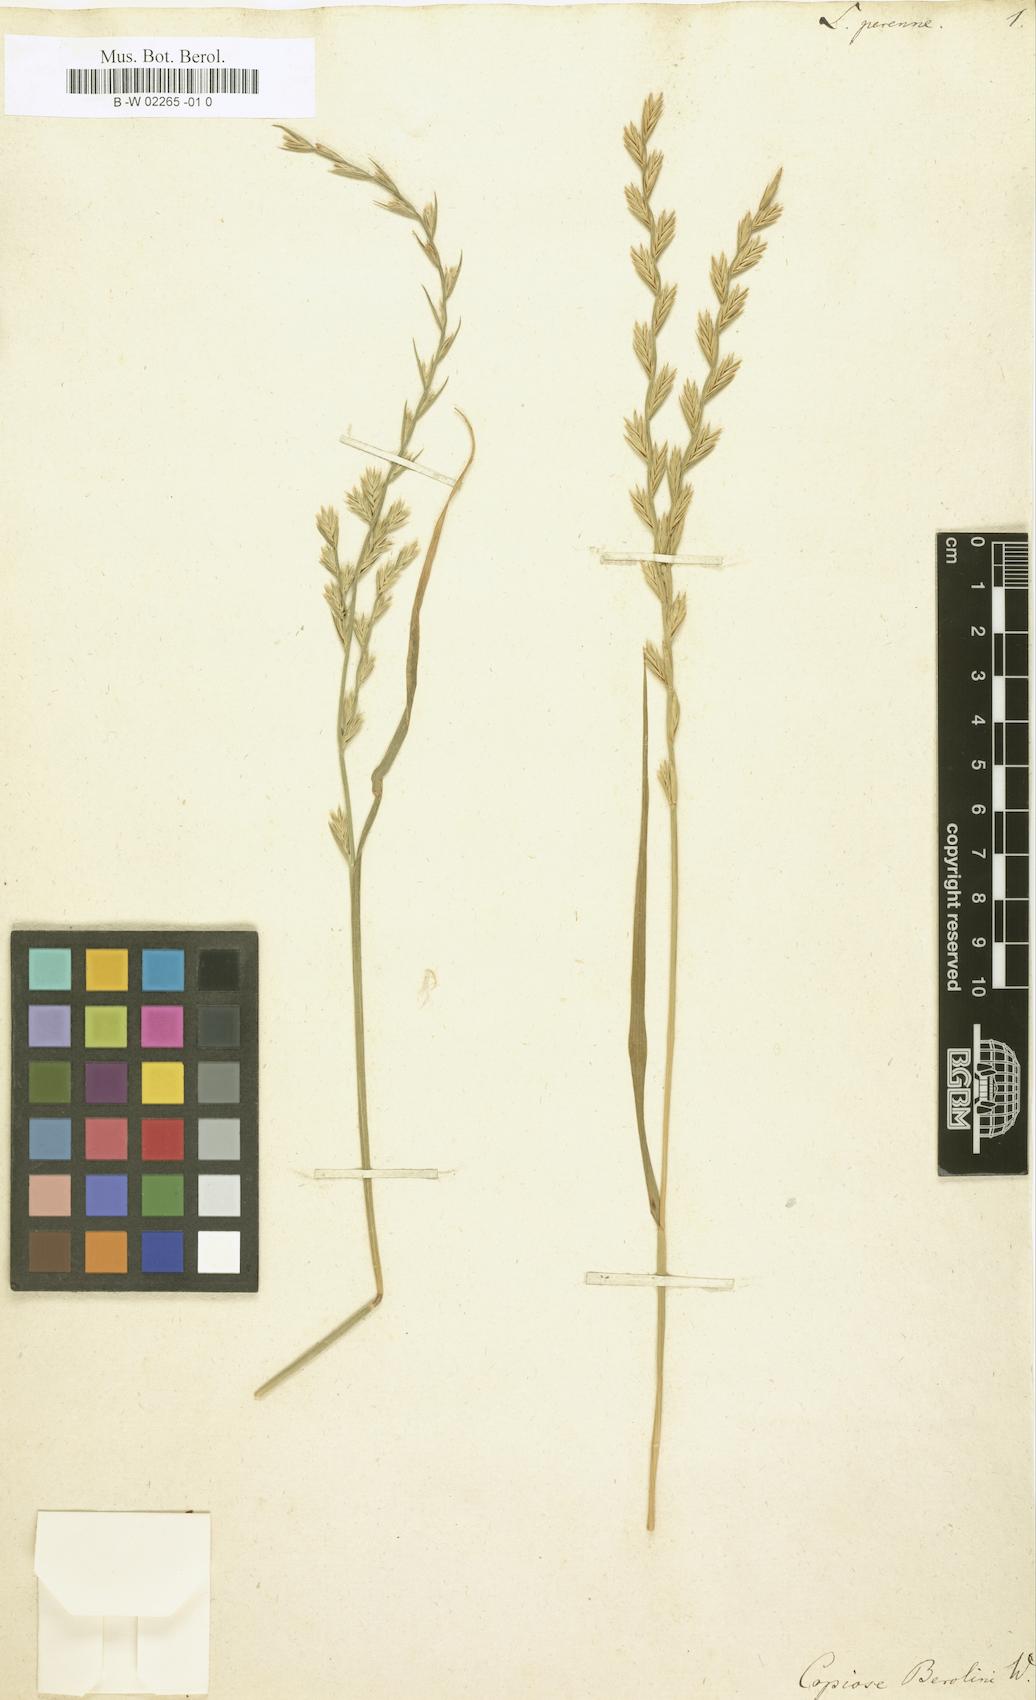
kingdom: Plantae
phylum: Tracheophyta
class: Liliopsida
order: Poales
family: Poaceae
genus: Lolium
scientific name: Lolium perenne
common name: Perennial ryegrass
